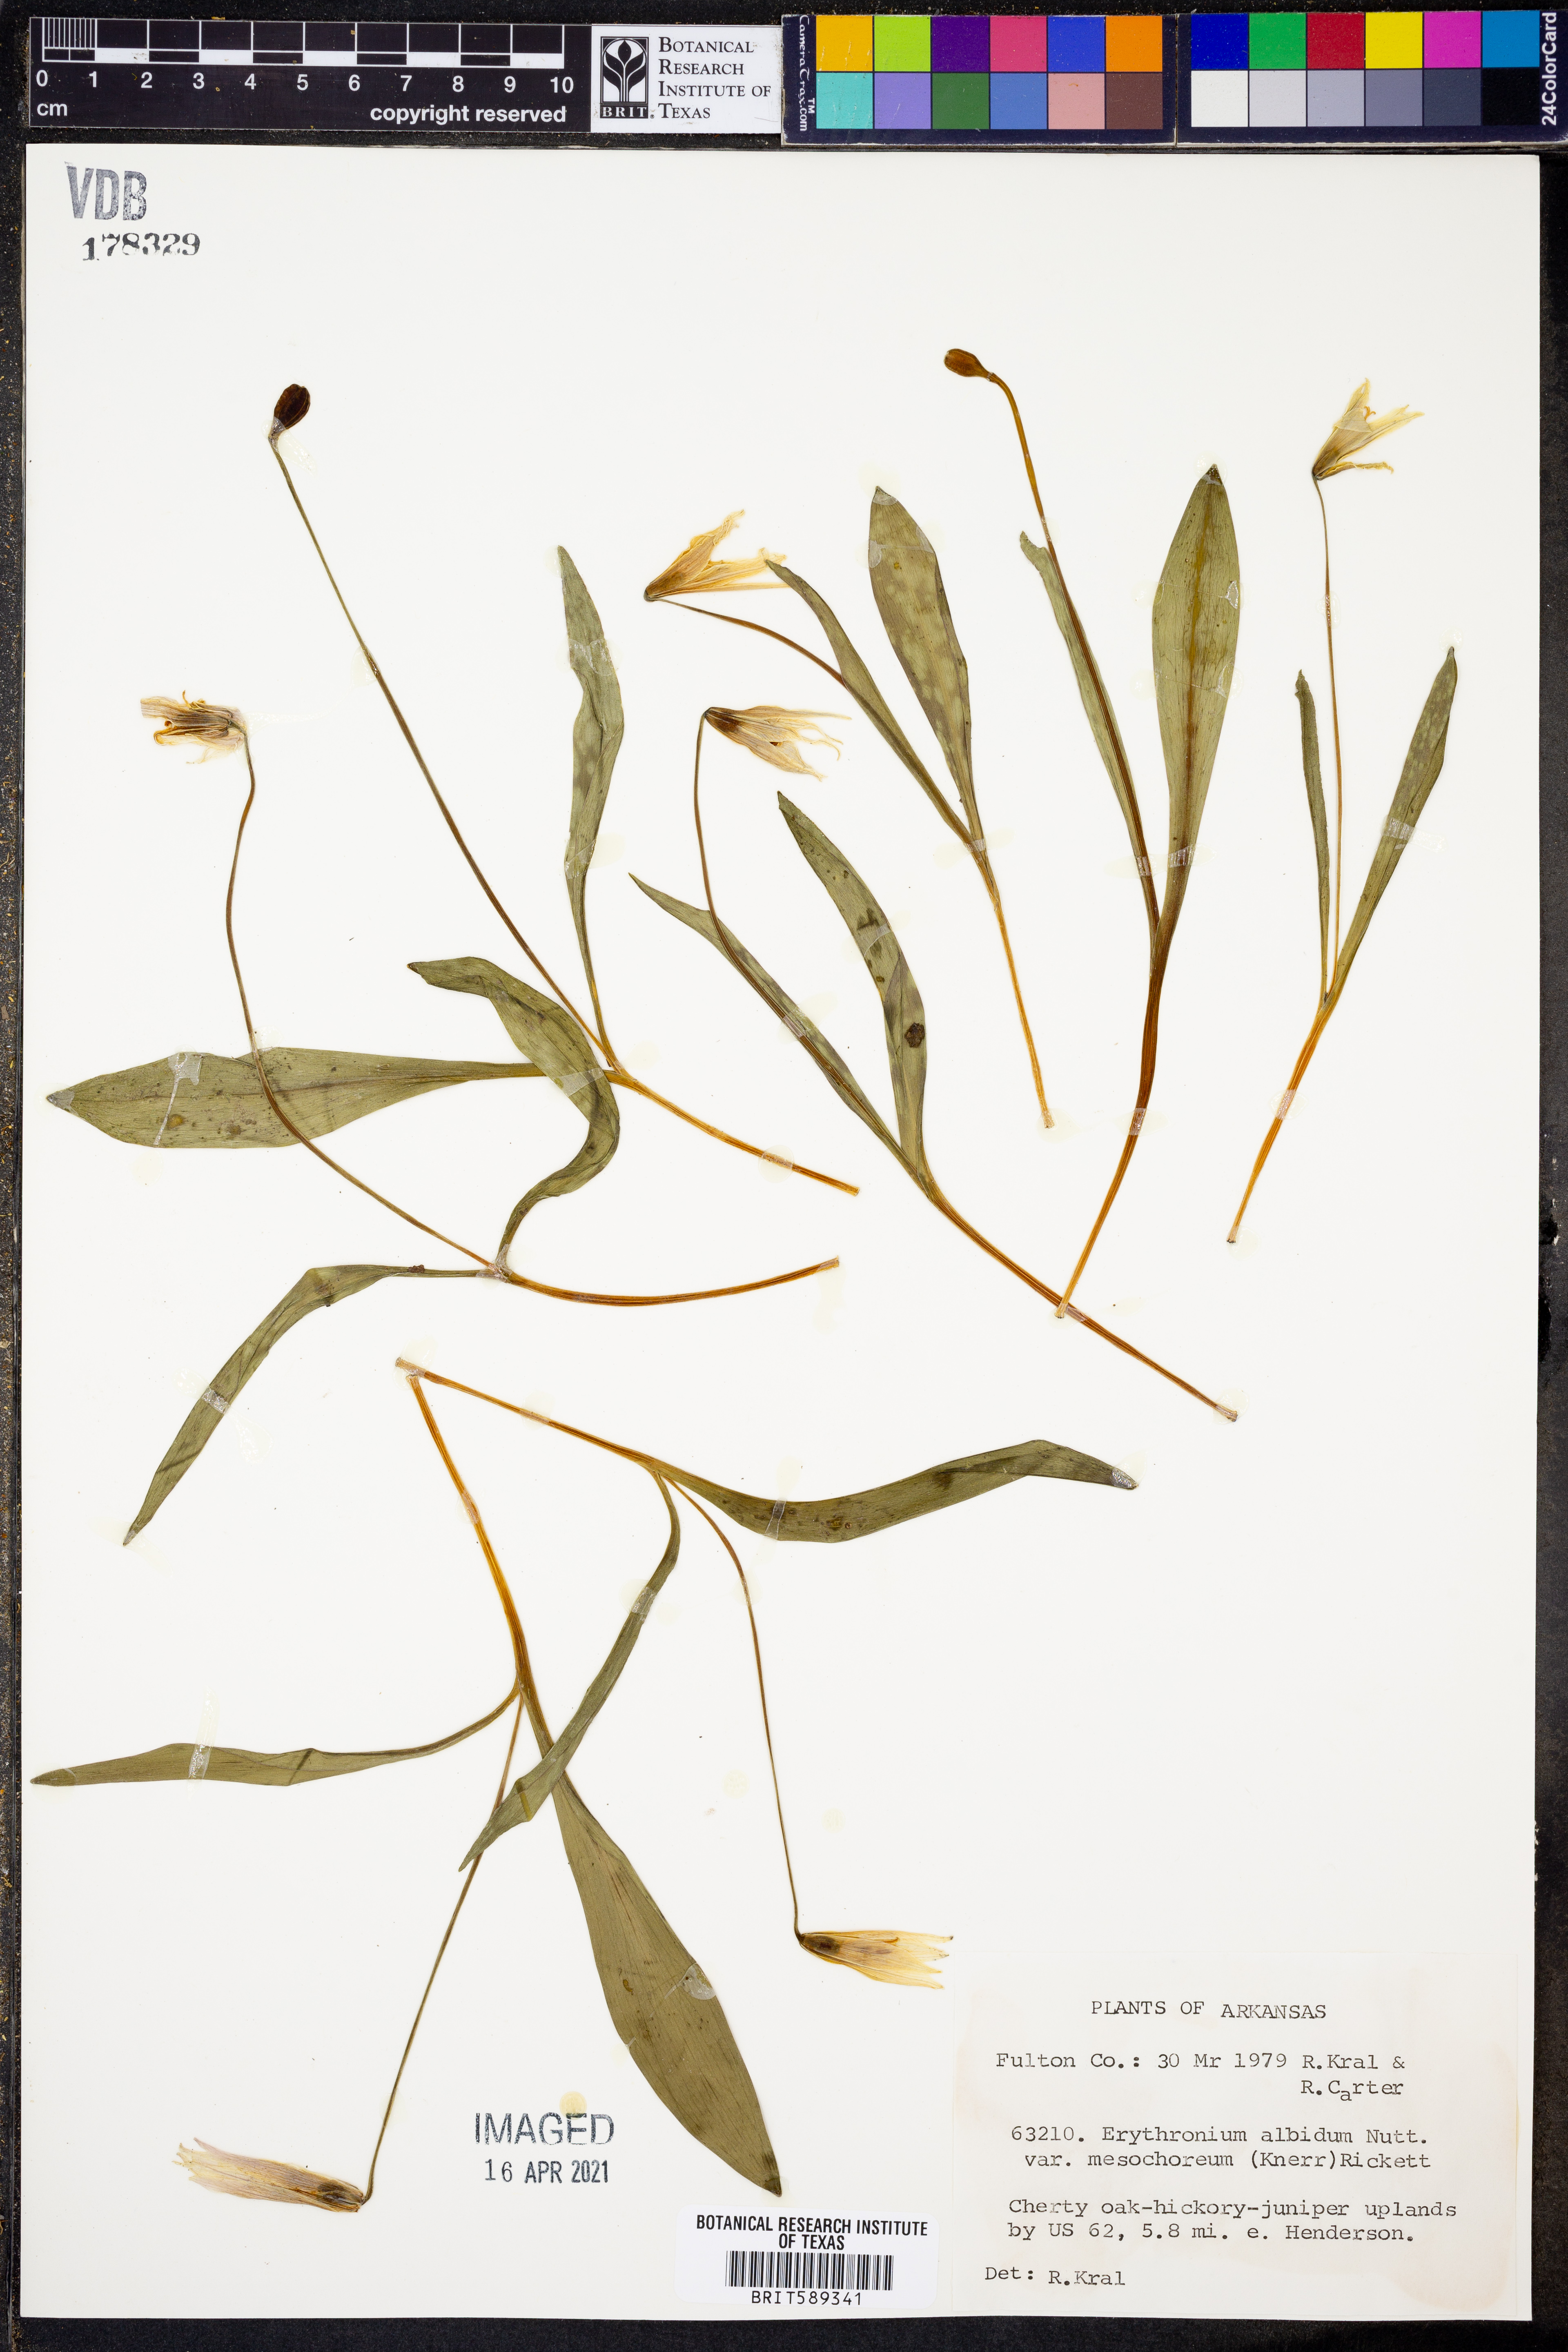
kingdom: Plantae
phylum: Tracheophyta
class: Liliopsida
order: Liliales
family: Liliaceae
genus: Erythronium
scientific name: Erythronium mesochoreum
